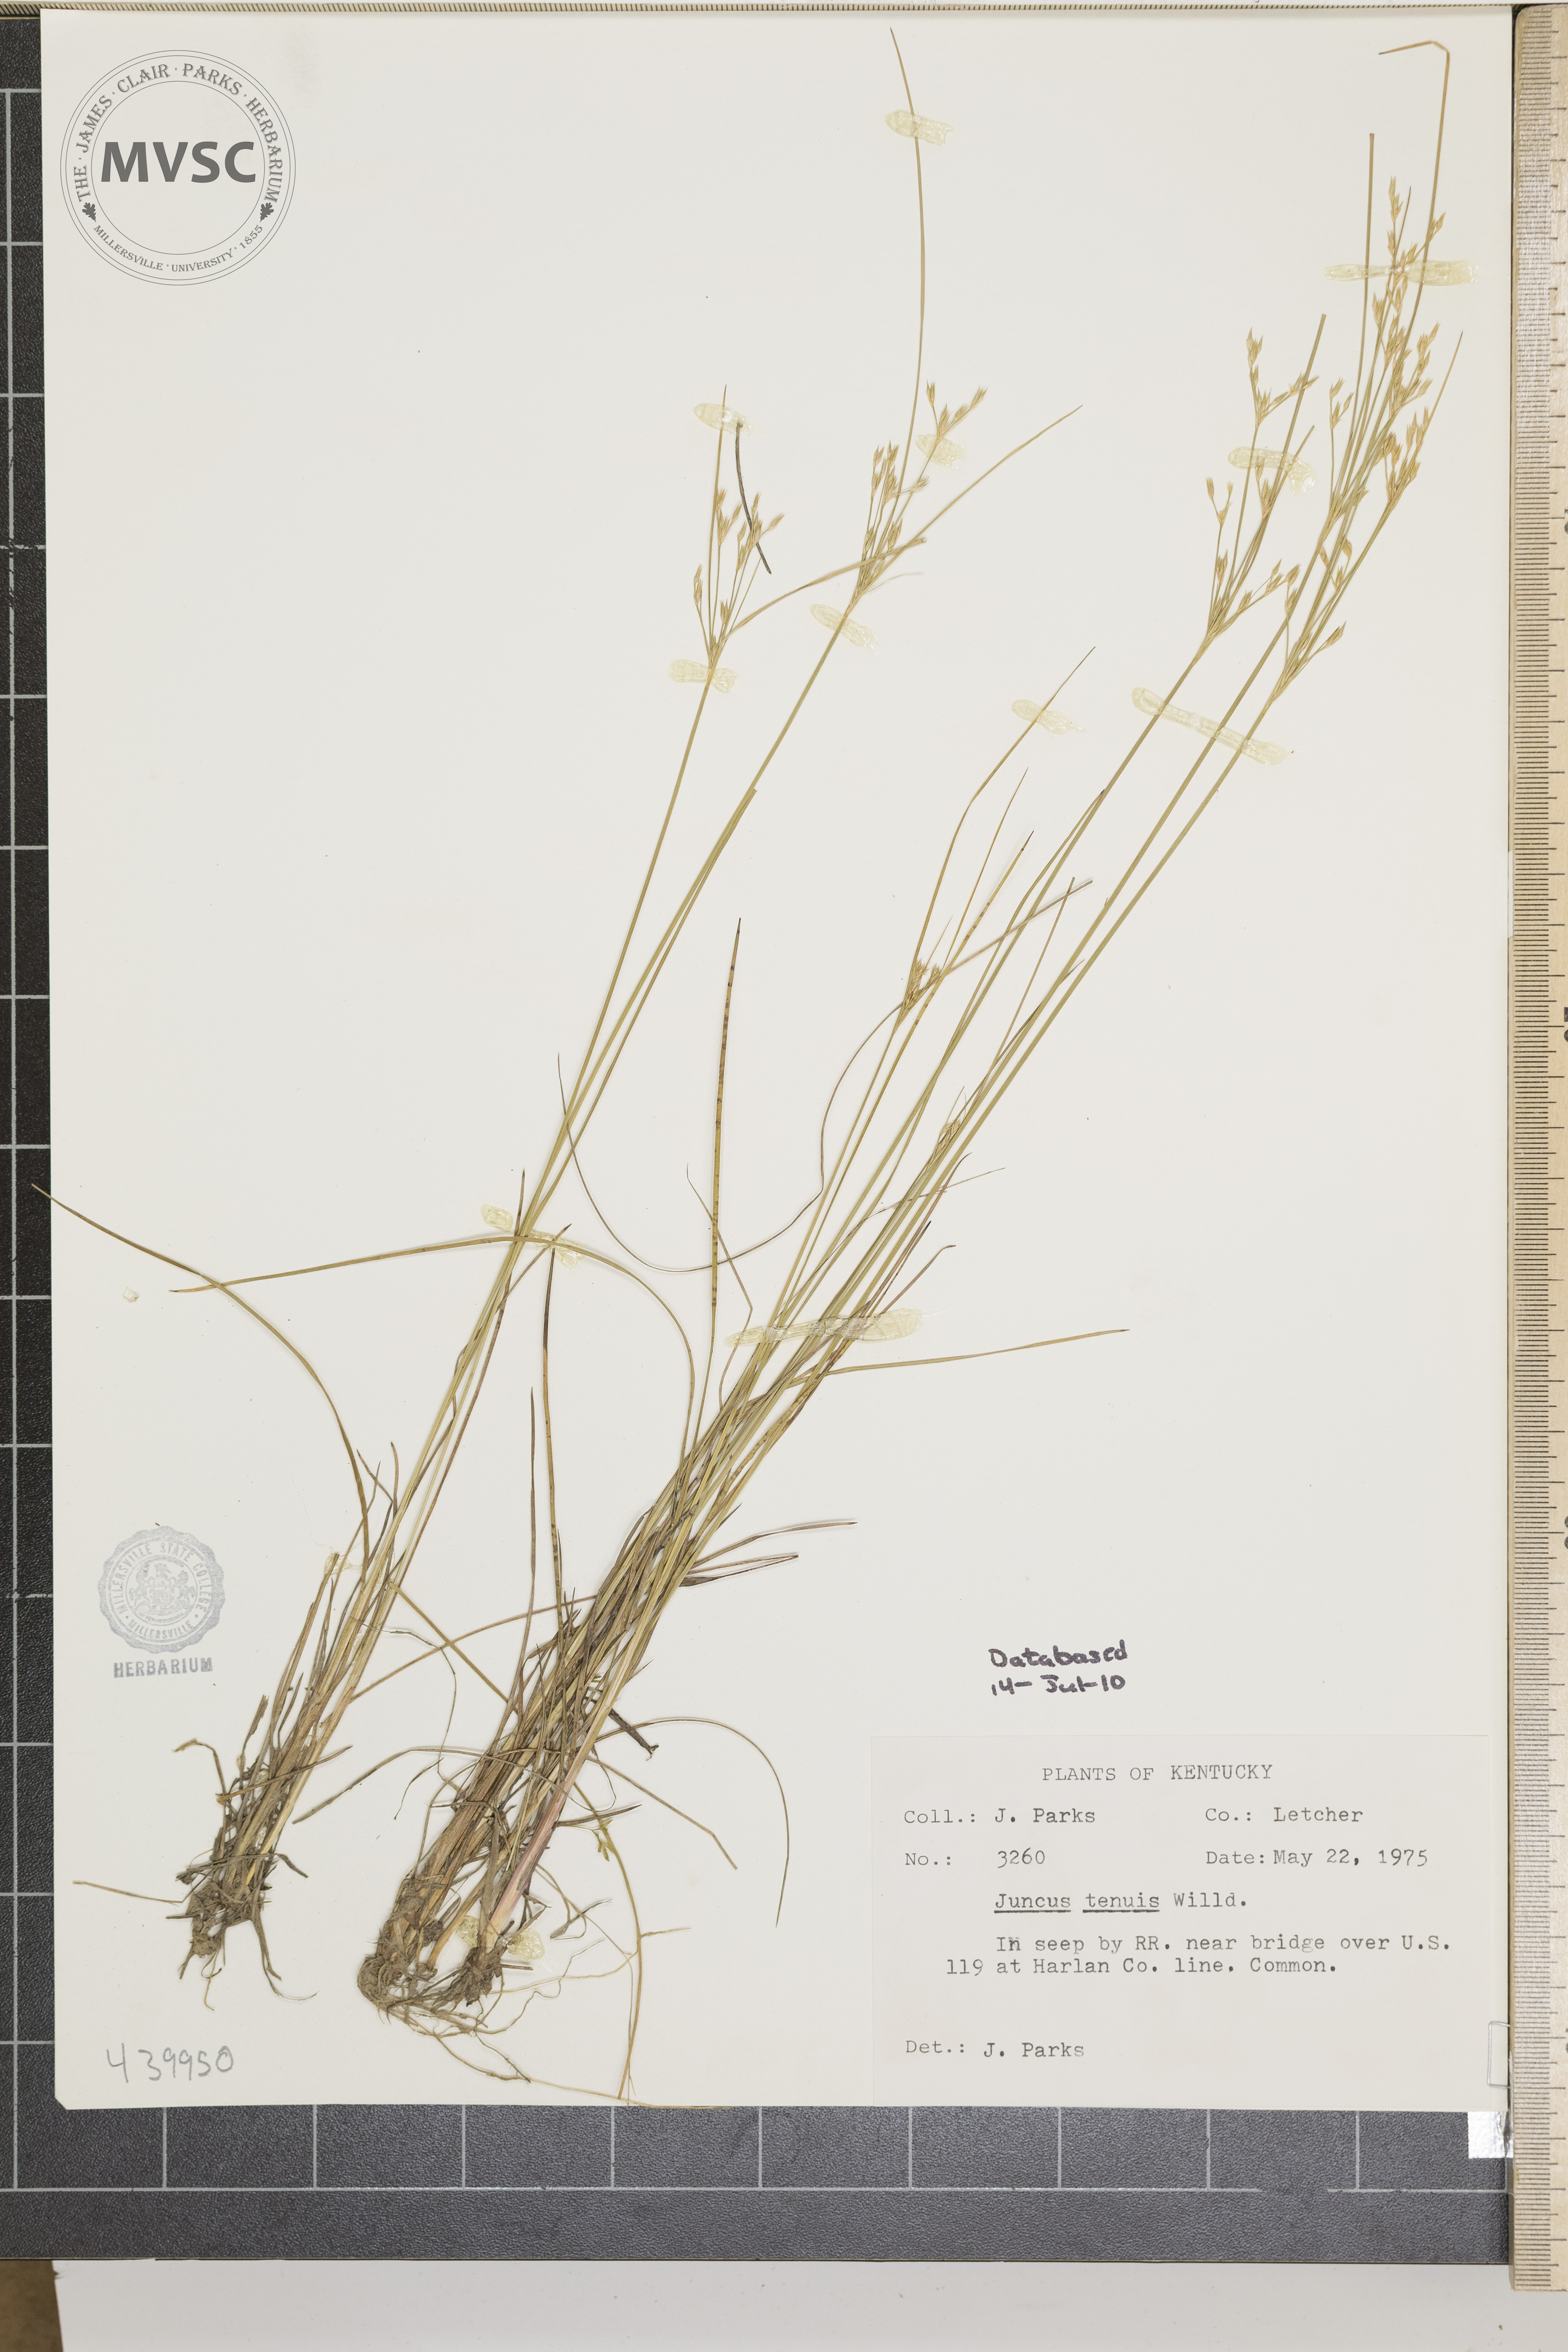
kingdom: Plantae
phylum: Tracheophyta
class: Liliopsida
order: Poales
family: Juncaceae
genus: Juncus
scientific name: Juncus tenuis
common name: Slender rush
